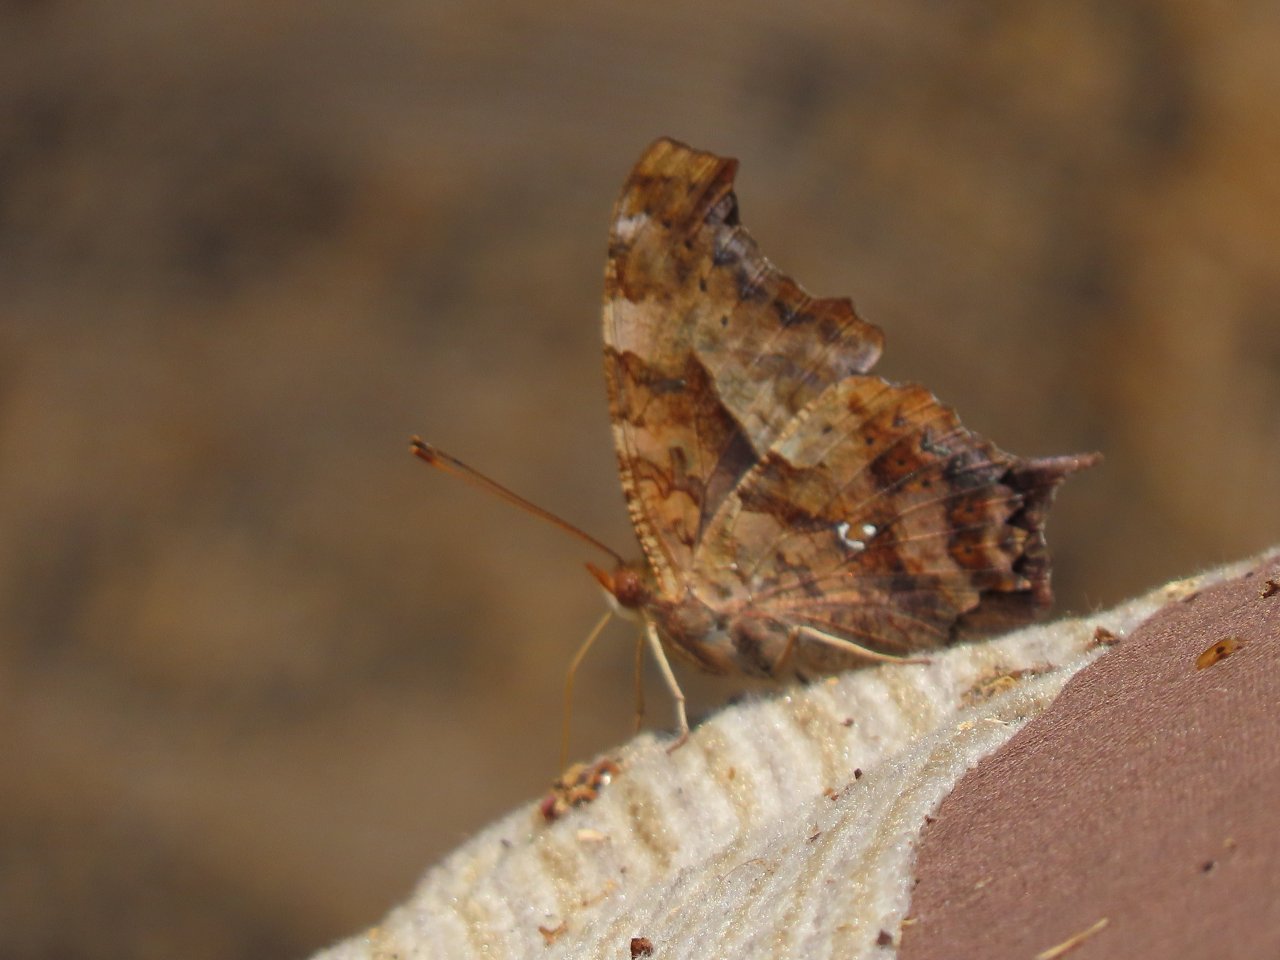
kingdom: Animalia
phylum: Arthropoda
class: Insecta
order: Lepidoptera
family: Nymphalidae
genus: Polygonia
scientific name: Polygonia interrogationis
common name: Question Mark
